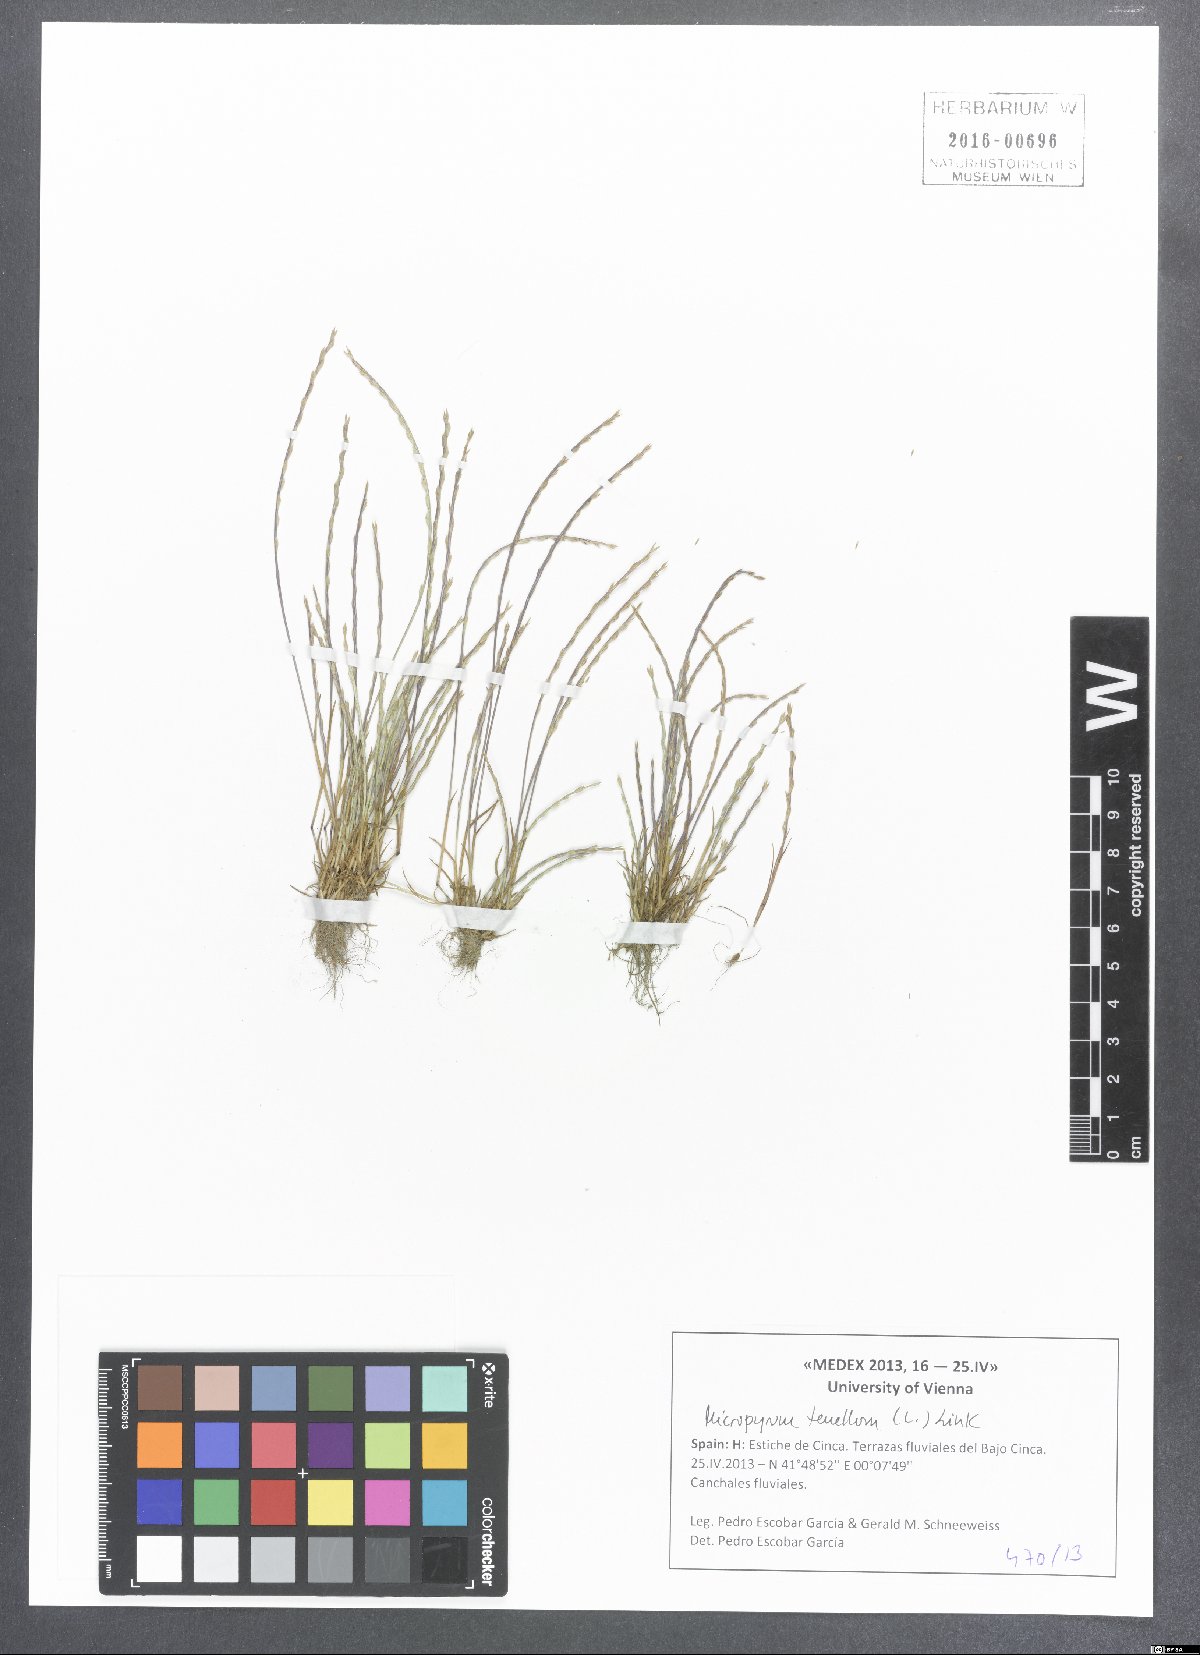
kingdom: Plantae
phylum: Tracheophyta
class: Liliopsida
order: Poales
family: Poaceae
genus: Festuca
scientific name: Festuca lachenalii
